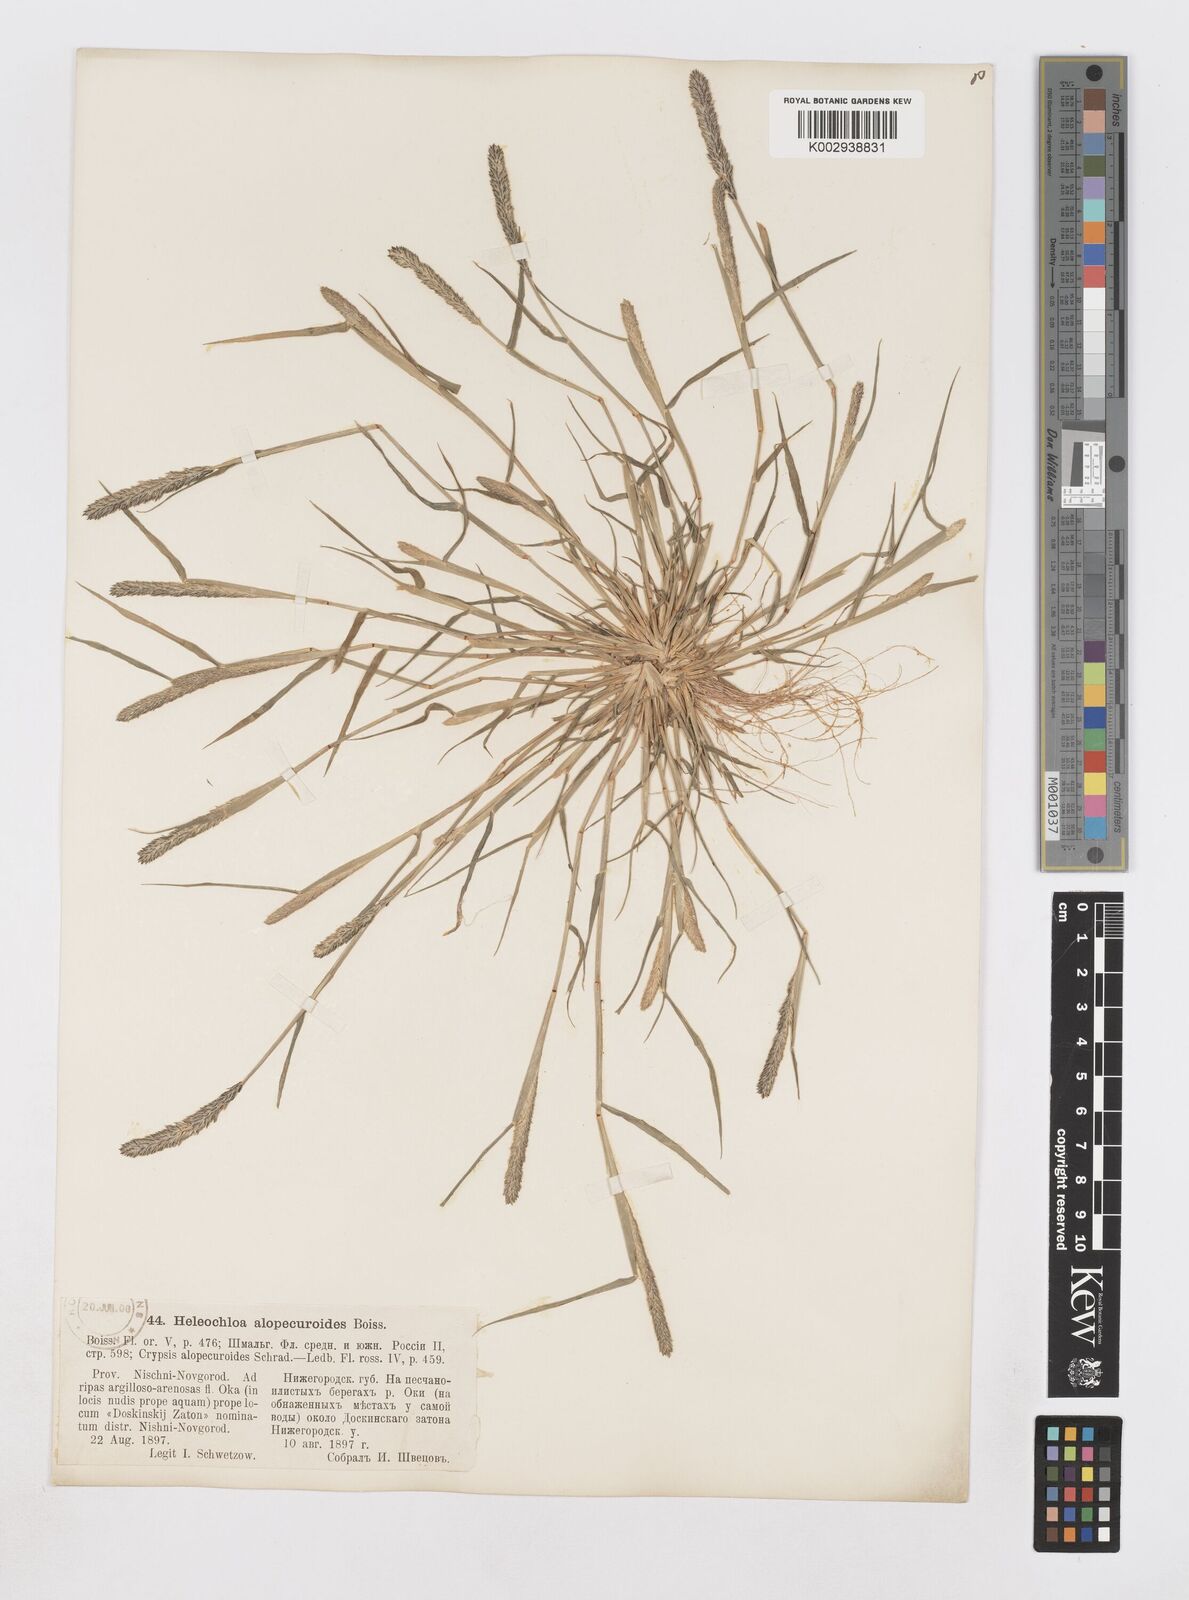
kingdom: Plantae
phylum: Tracheophyta
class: Liliopsida
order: Poales
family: Poaceae
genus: Sporobolus
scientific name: Sporobolus alopecuroides
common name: Foxtail pricklegrass
